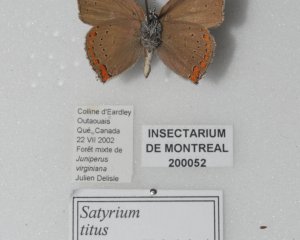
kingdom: Animalia
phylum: Arthropoda
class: Insecta
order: Lepidoptera
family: Lycaenidae
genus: Harkenclenus
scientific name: Harkenclenus titus
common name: Coral Hairstreak
